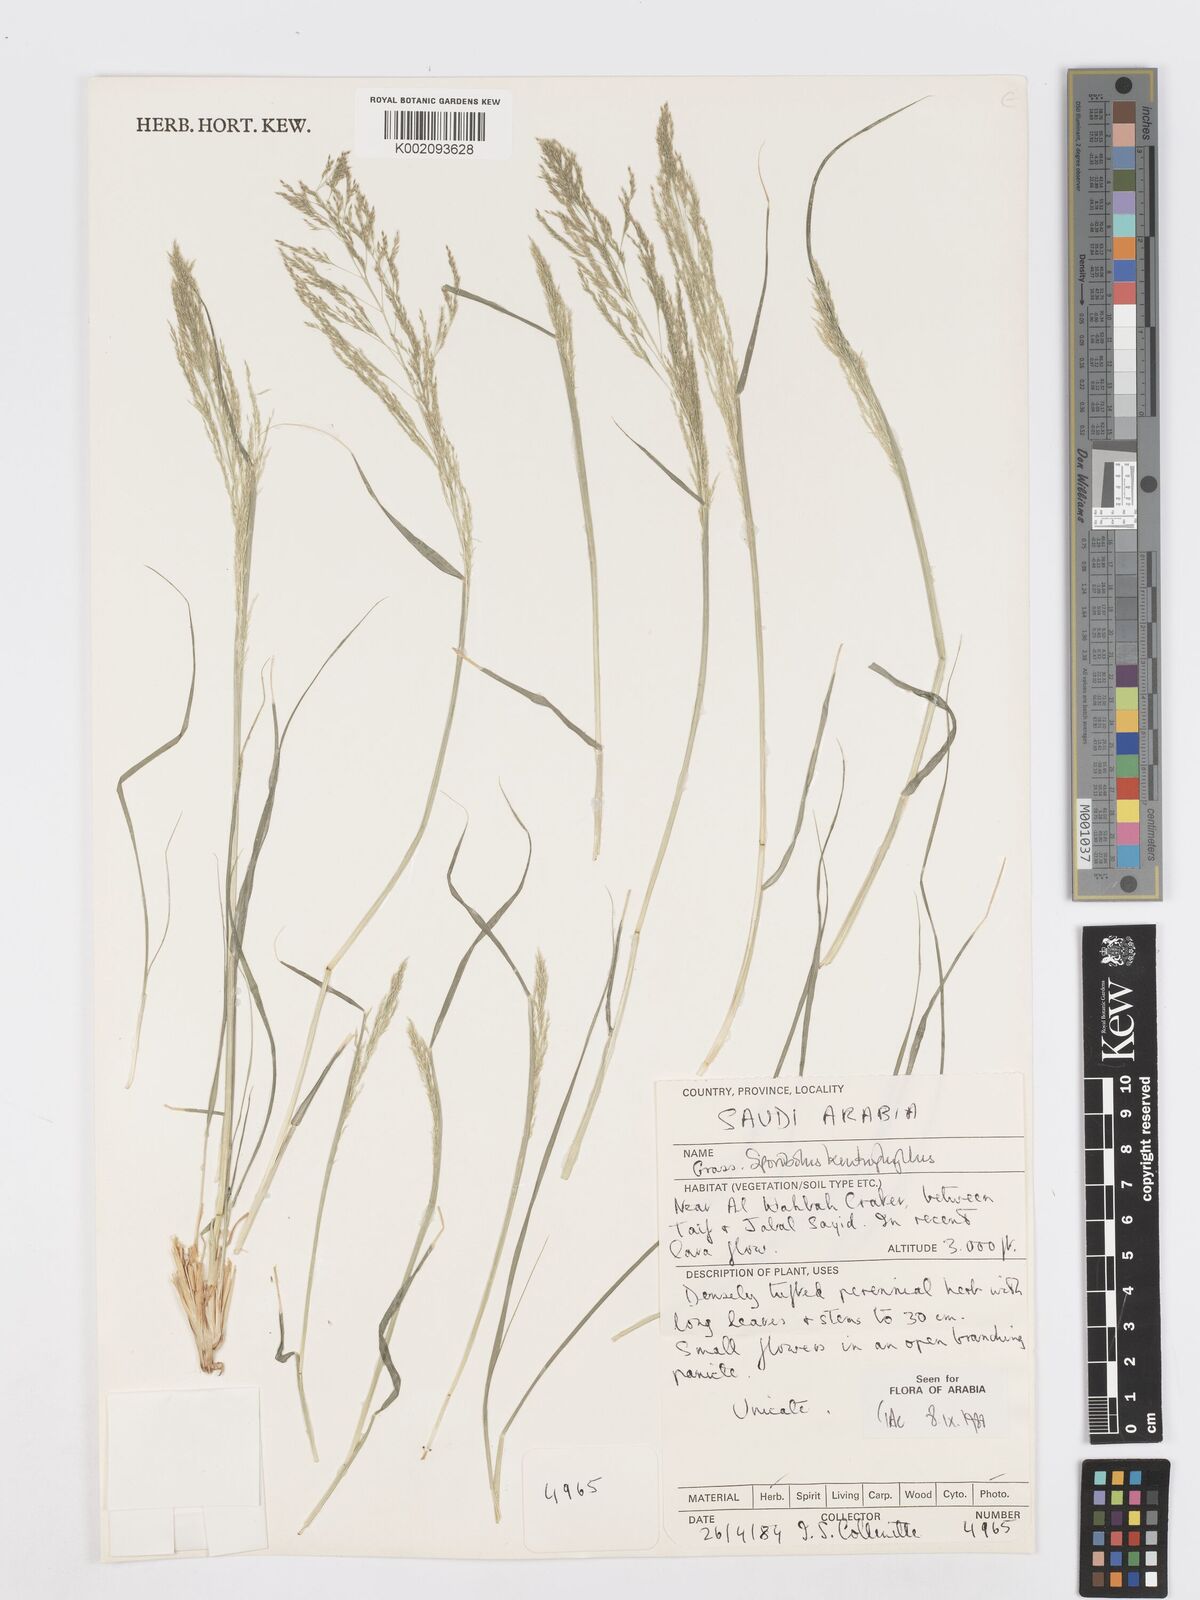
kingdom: Plantae
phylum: Tracheophyta
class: Liliopsida
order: Poales
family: Poaceae
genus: Sporobolus
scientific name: Sporobolus ioclados
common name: Pan dropseed
